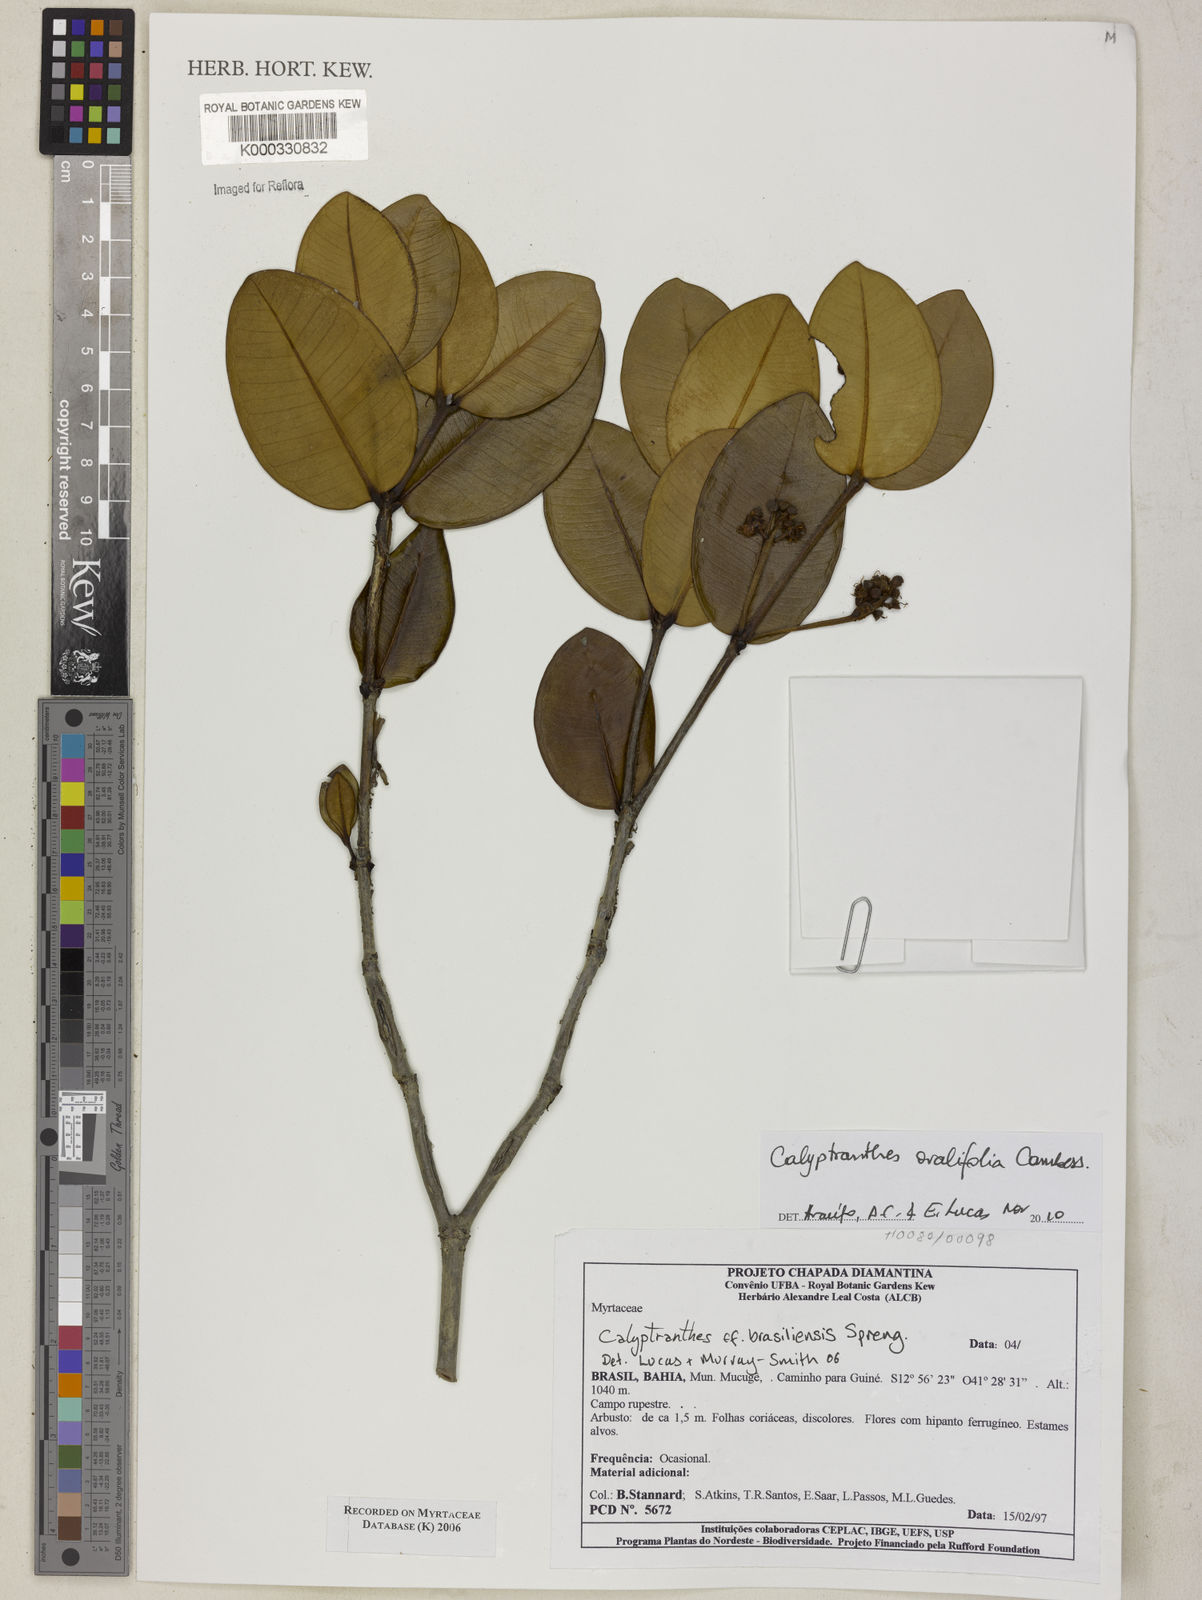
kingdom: Plantae
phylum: Tracheophyta
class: Magnoliopsida
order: Myrtales
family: Myrtaceae
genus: Myrcia
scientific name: Myrcia neobrasiliensis
